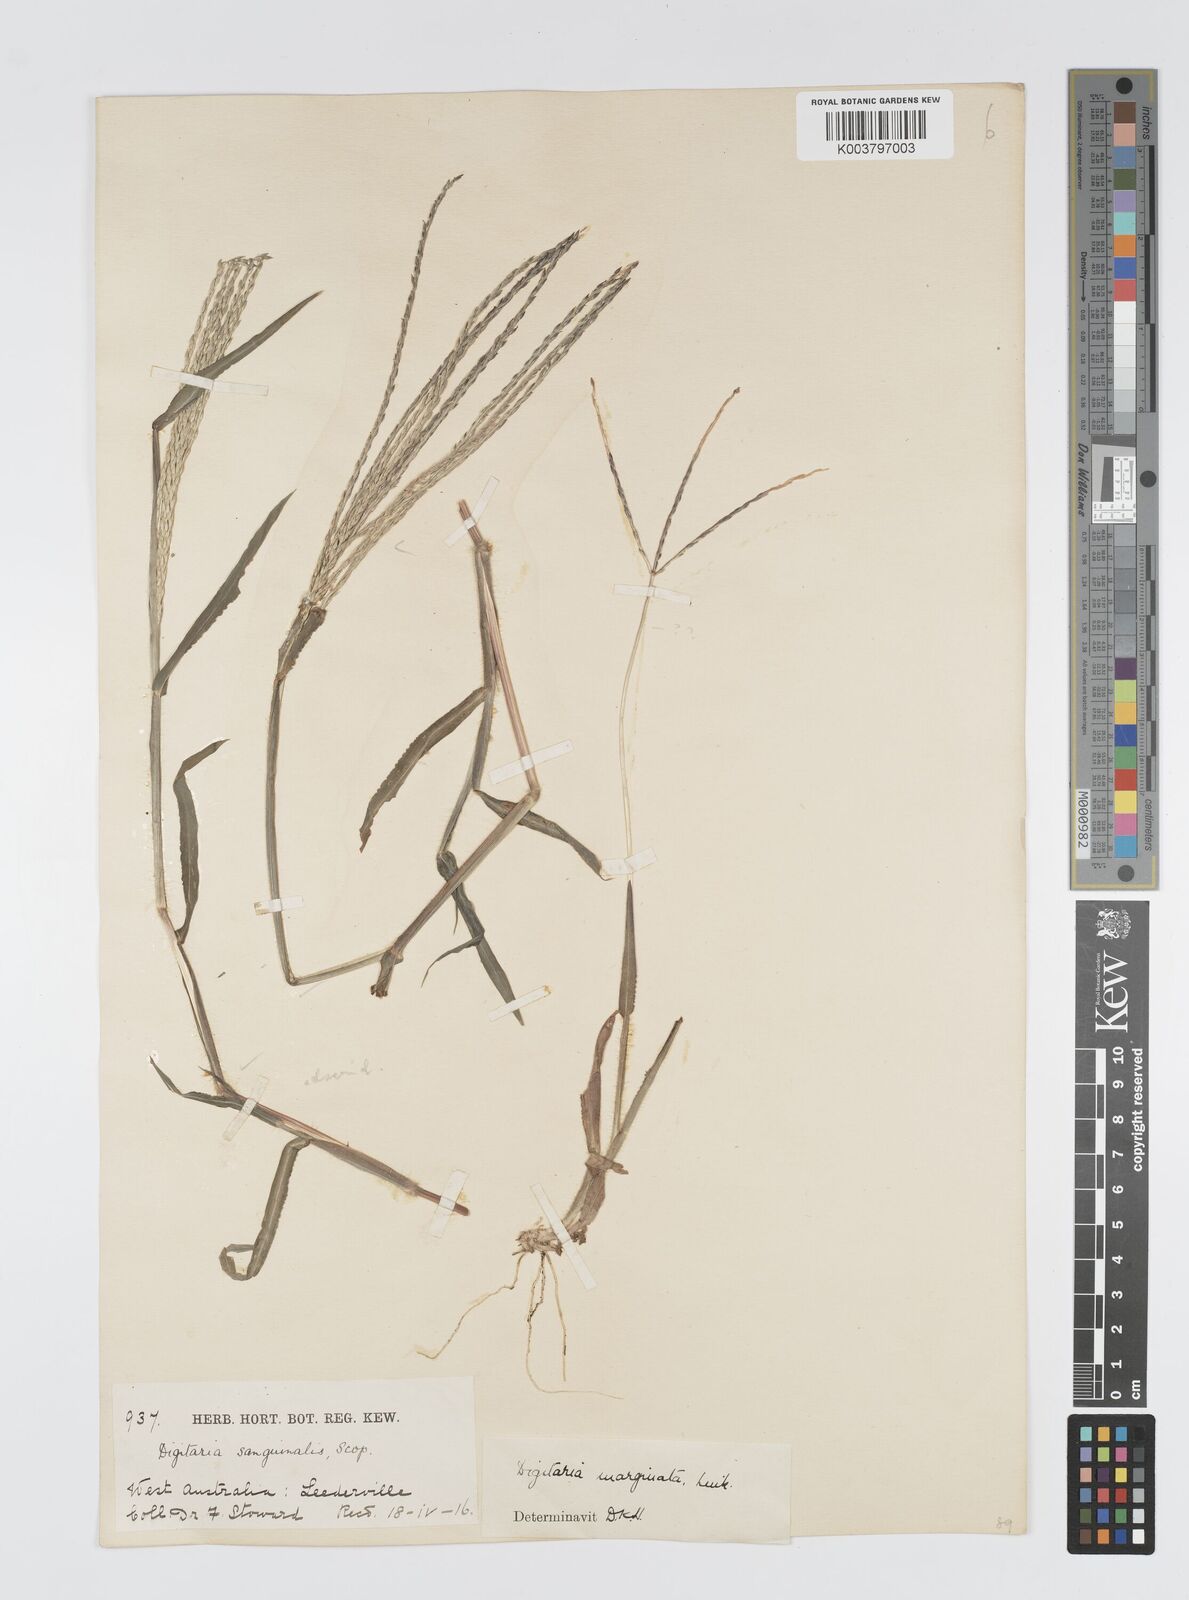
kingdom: Plantae
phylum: Tracheophyta
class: Liliopsida
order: Poales
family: Poaceae
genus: Digitaria
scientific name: Digitaria ciliaris
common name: Tropical finger-grass
